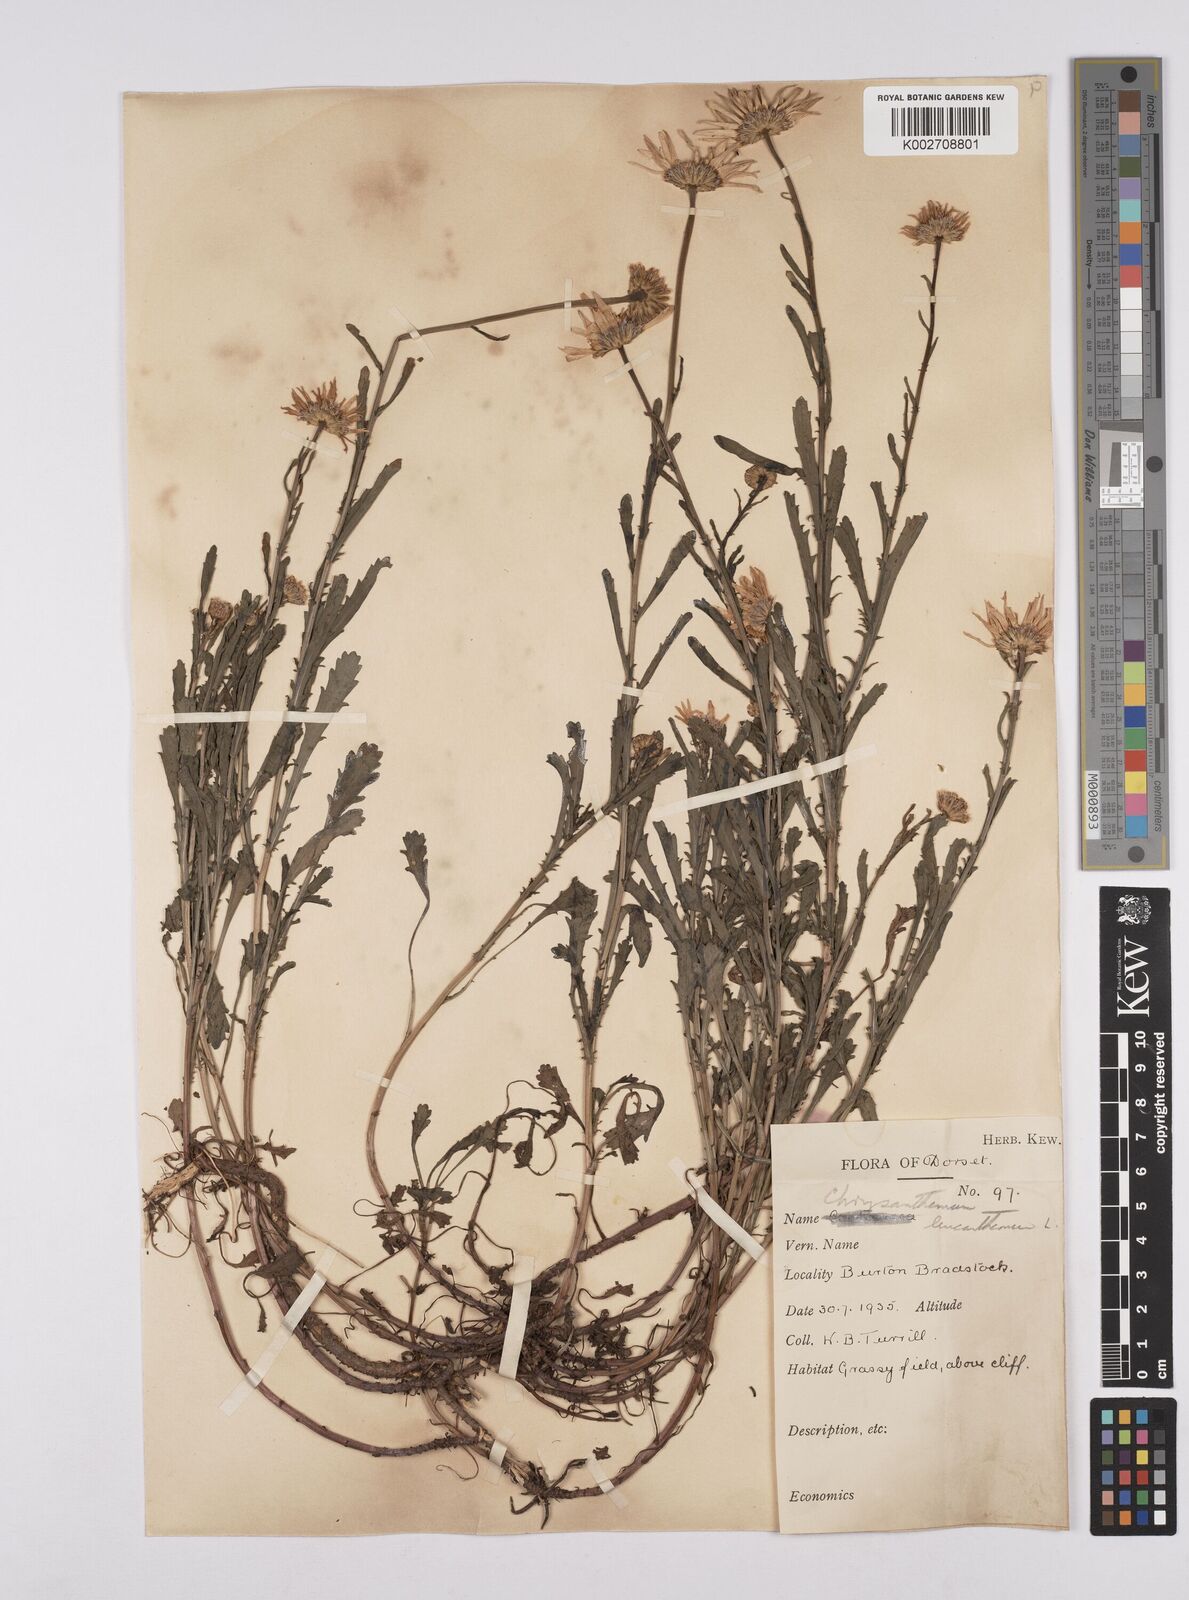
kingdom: Plantae
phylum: Tracheophyta
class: Magnoliopsida
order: Asterales
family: Asteraceae
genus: Leucanthemum
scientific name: Leucanthemum vulgare
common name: Oxeye daisy
